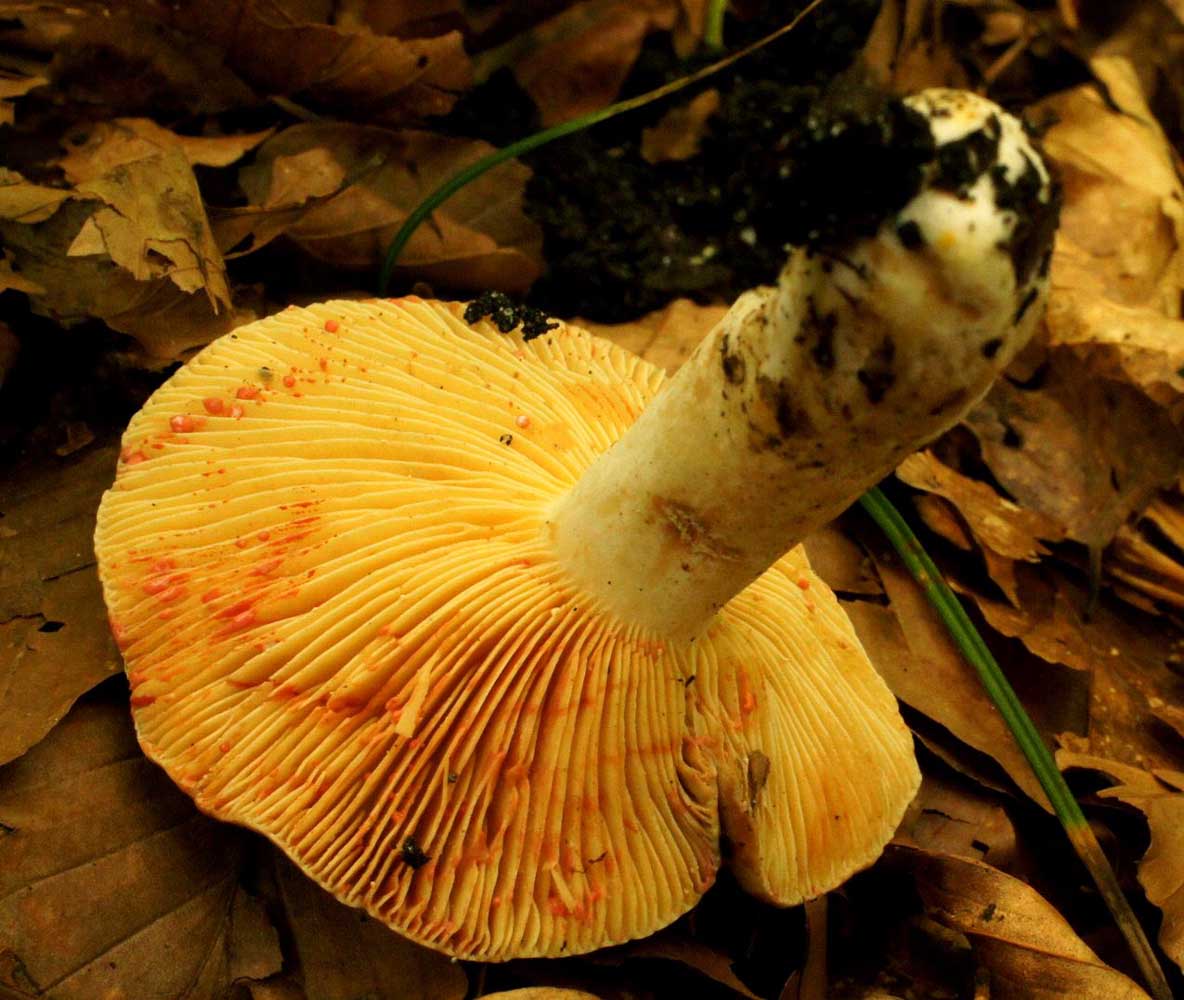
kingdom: Fungi
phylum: Basidiomycota
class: Agaricomycetes
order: Russulales
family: Russulaceae
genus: Lactarius
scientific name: Lactarius acris
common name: rosamælket mælkehat
